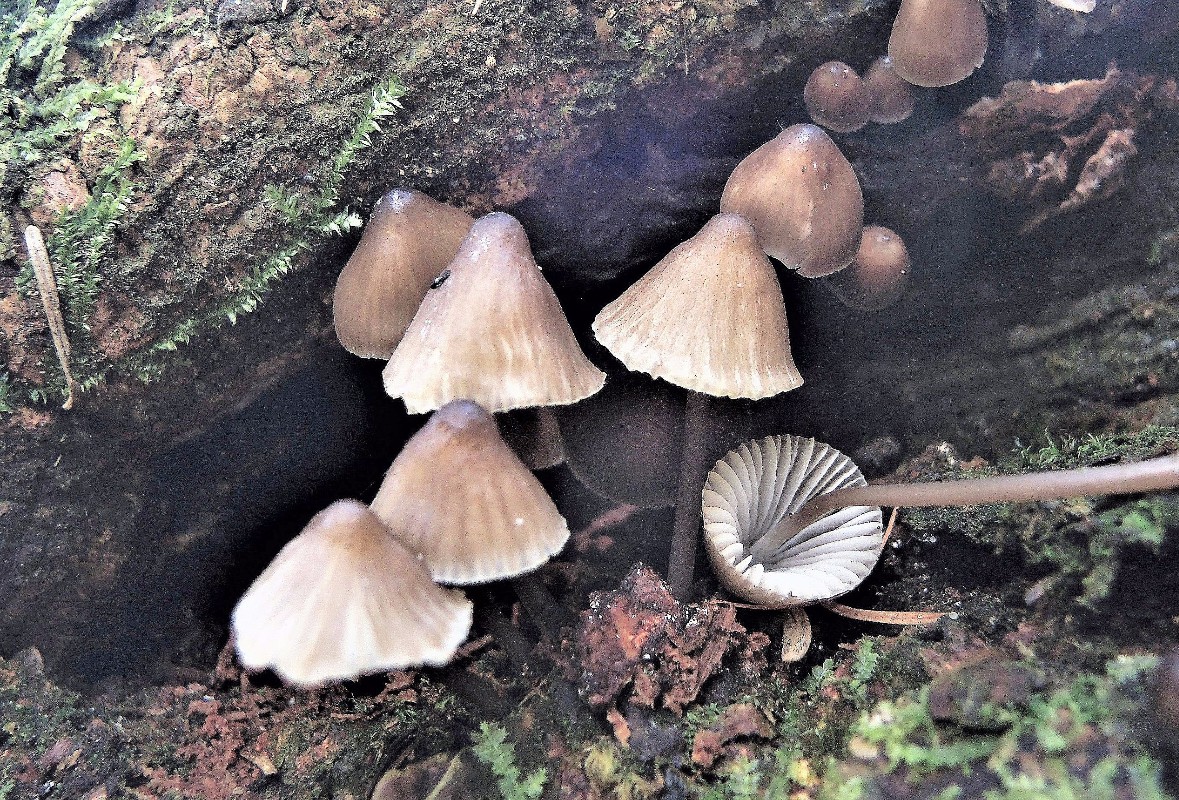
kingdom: Fungi
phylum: Basidiomycota
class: Agaricomycetes
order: Agaricales
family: Mycenaceae
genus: Mycena
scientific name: Mycena silvae-nigrae
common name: tidlig huesvamp
